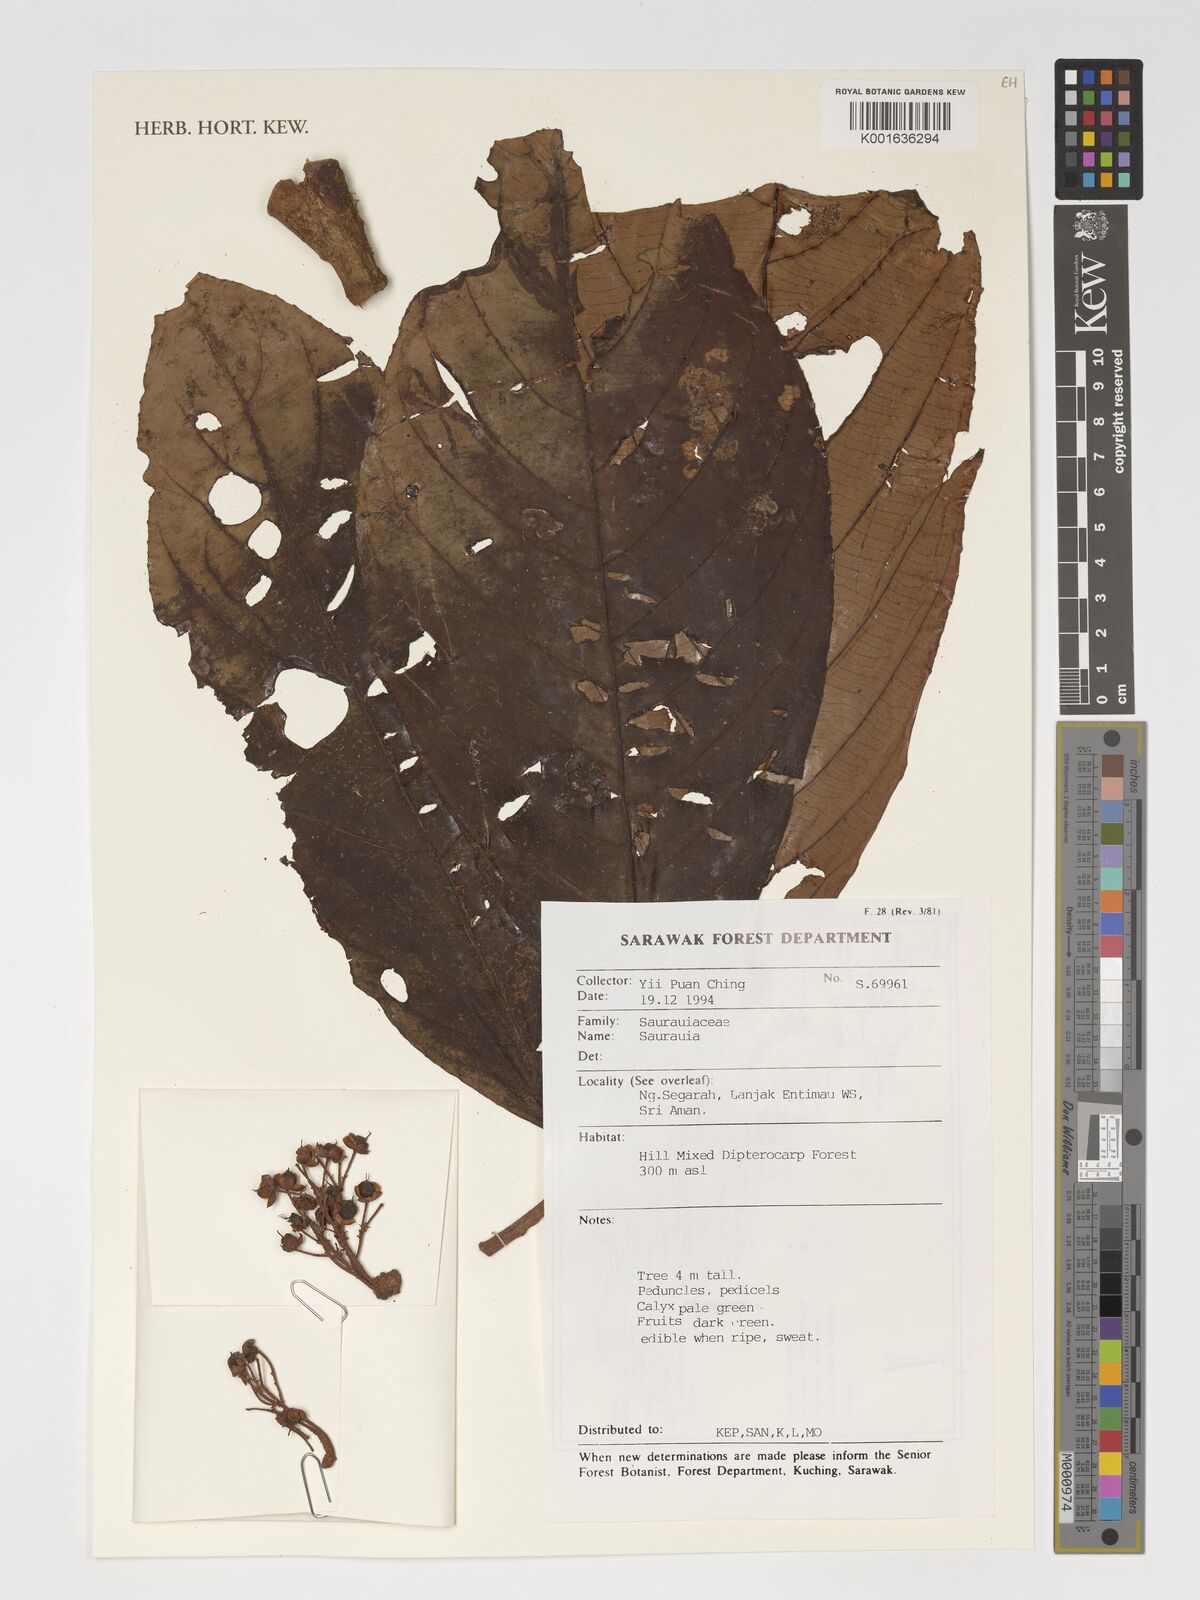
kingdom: Plantae
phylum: Tracheophyta
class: Magnoliopsida
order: Ericales
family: Actinidiaceae
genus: Saurauia
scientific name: Saurauia
